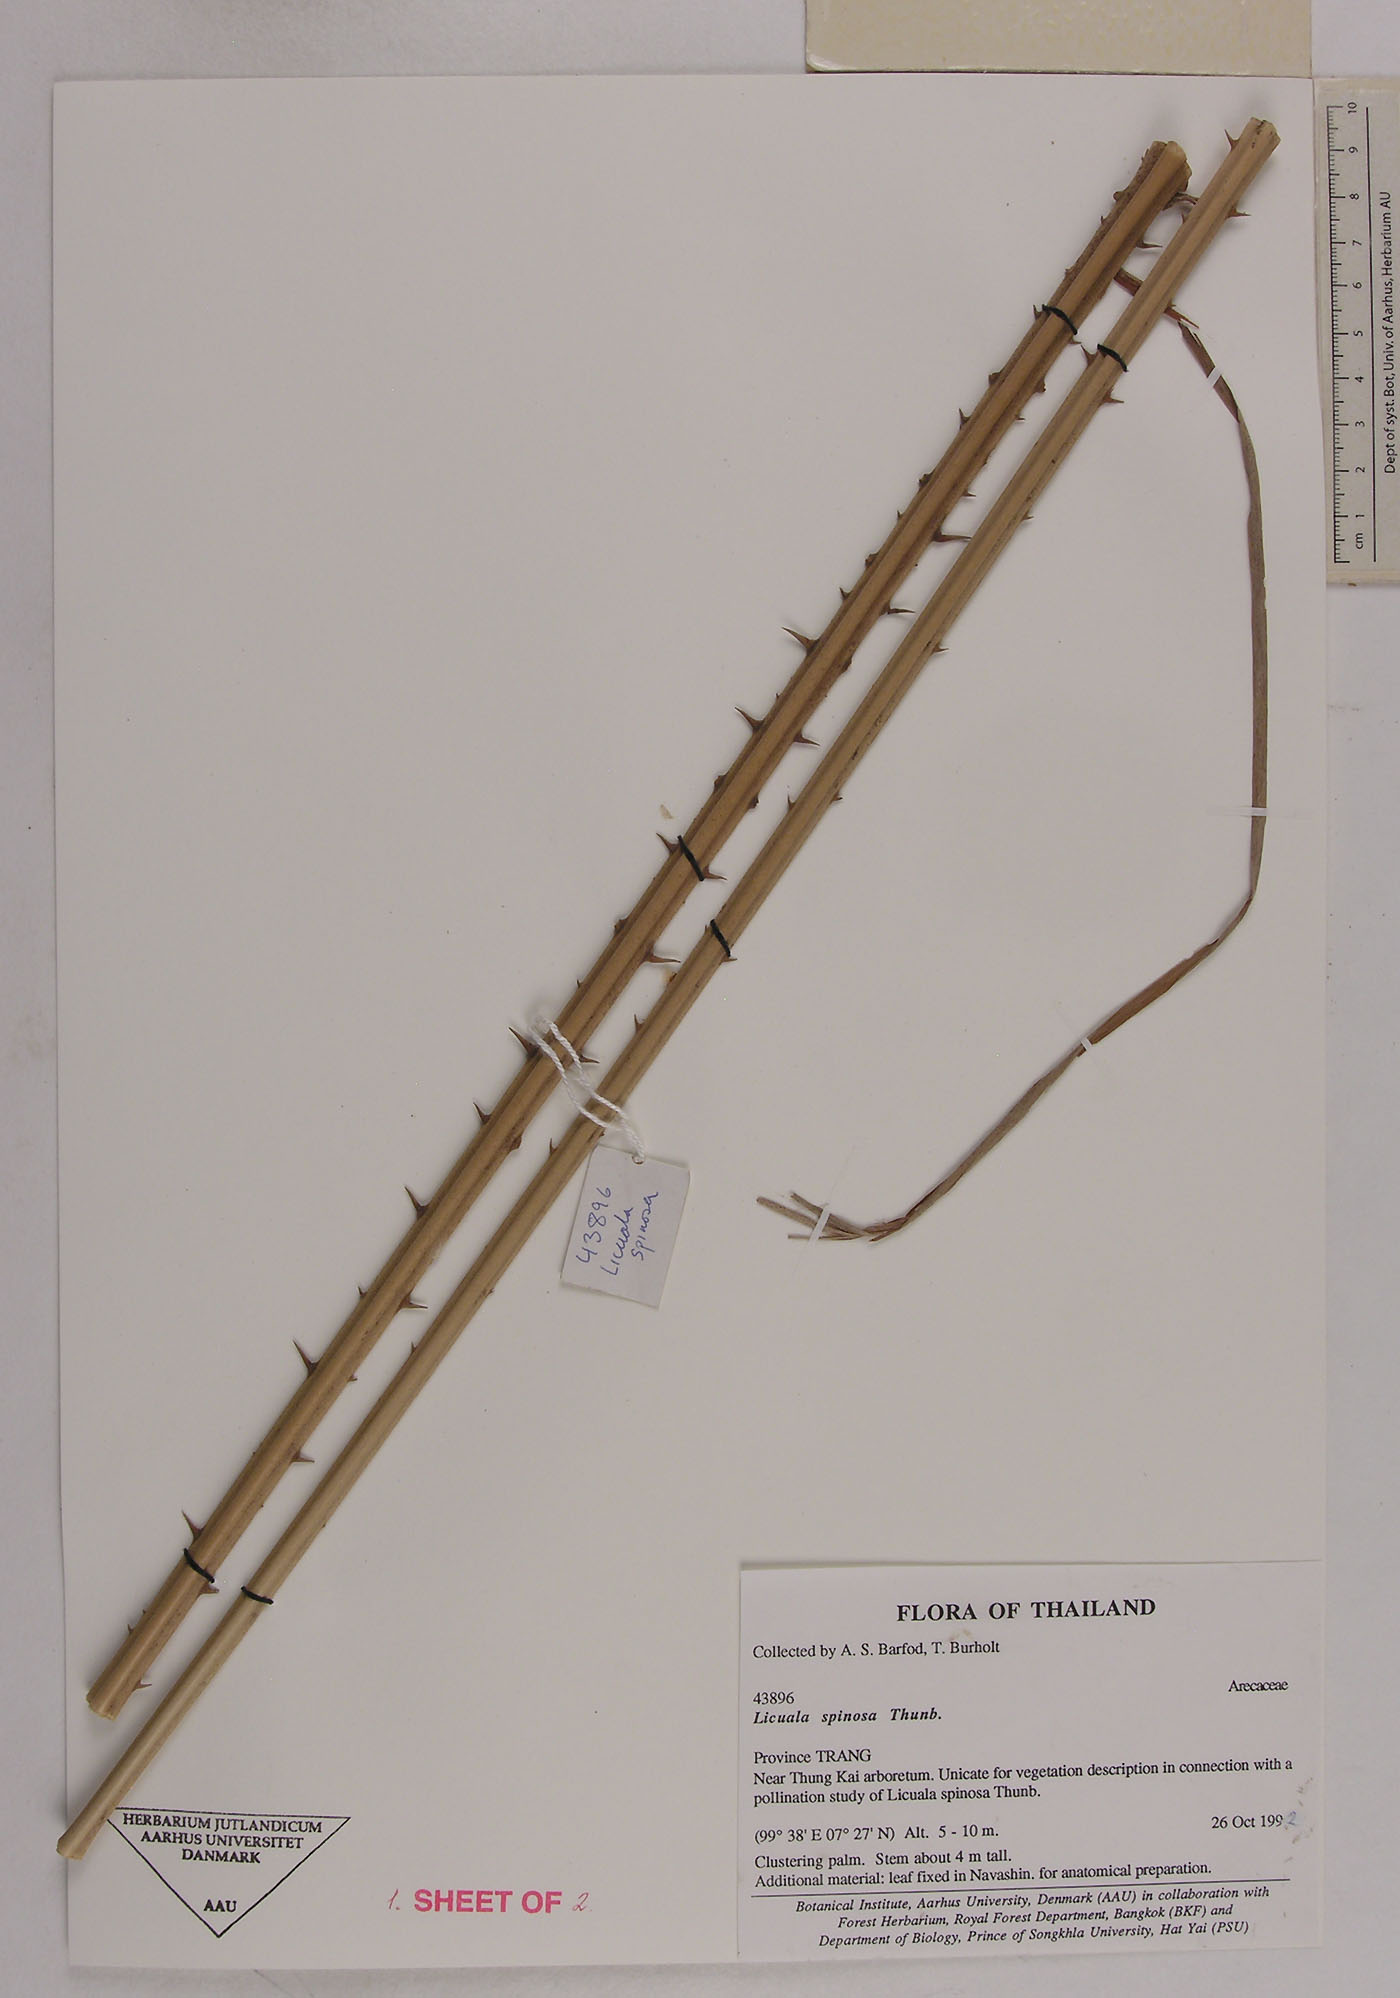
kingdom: Plantae
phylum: Tracheophyta
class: Liliopsida
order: Arecales
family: Arecaceae
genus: Licuala
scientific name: Licuala spinosa
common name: Mangrove fan palm
